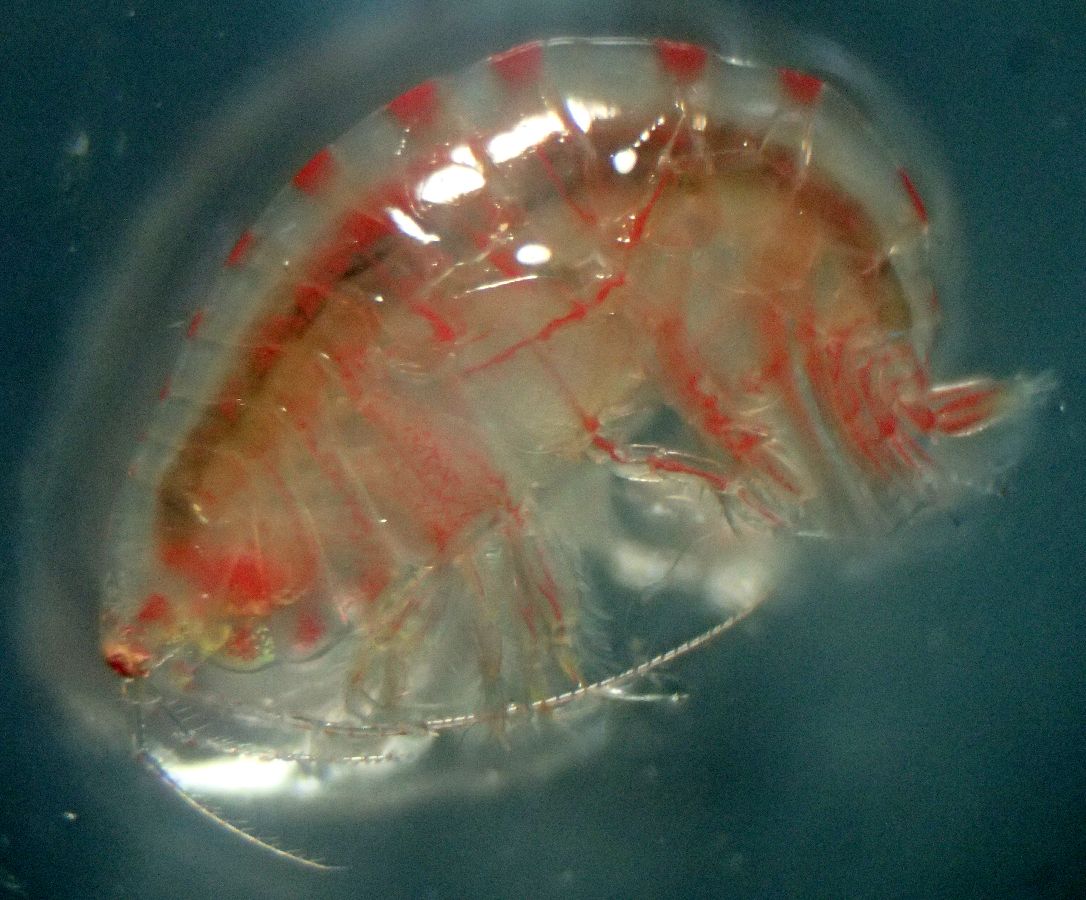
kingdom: Animalia
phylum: Arthropoda
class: Malacostraca
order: Amphipoda
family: Ampeliscidae
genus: Ampelisca
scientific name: Ampelisca macrocephala
